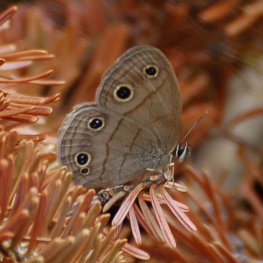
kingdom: Animalia
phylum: Arthropoda
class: Insecta
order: Lepidoptera
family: Nymphalidae
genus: Euptychia
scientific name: Euptychia cymela
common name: Little Wood Satyr
